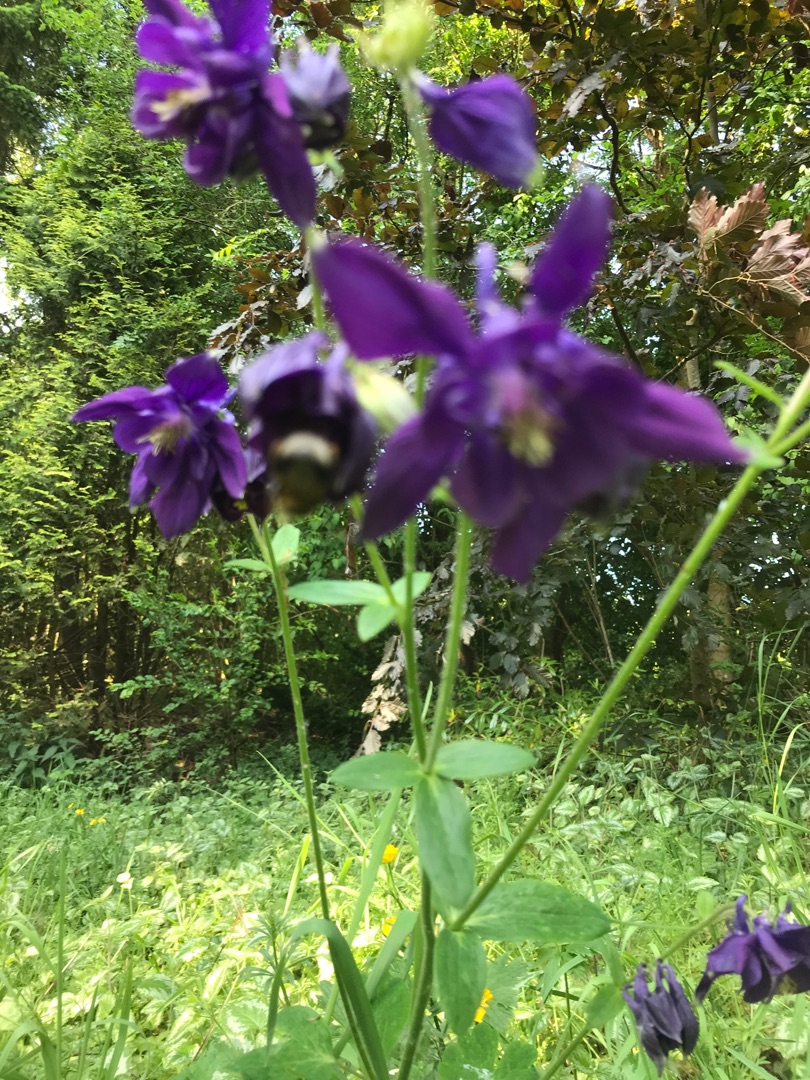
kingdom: Plantae
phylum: Tracheophyta
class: Magnoliopsida
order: Ranunculales
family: Ranunculaceae
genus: Aquilegia
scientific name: Aquilegia vulgaris
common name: Akeleje
